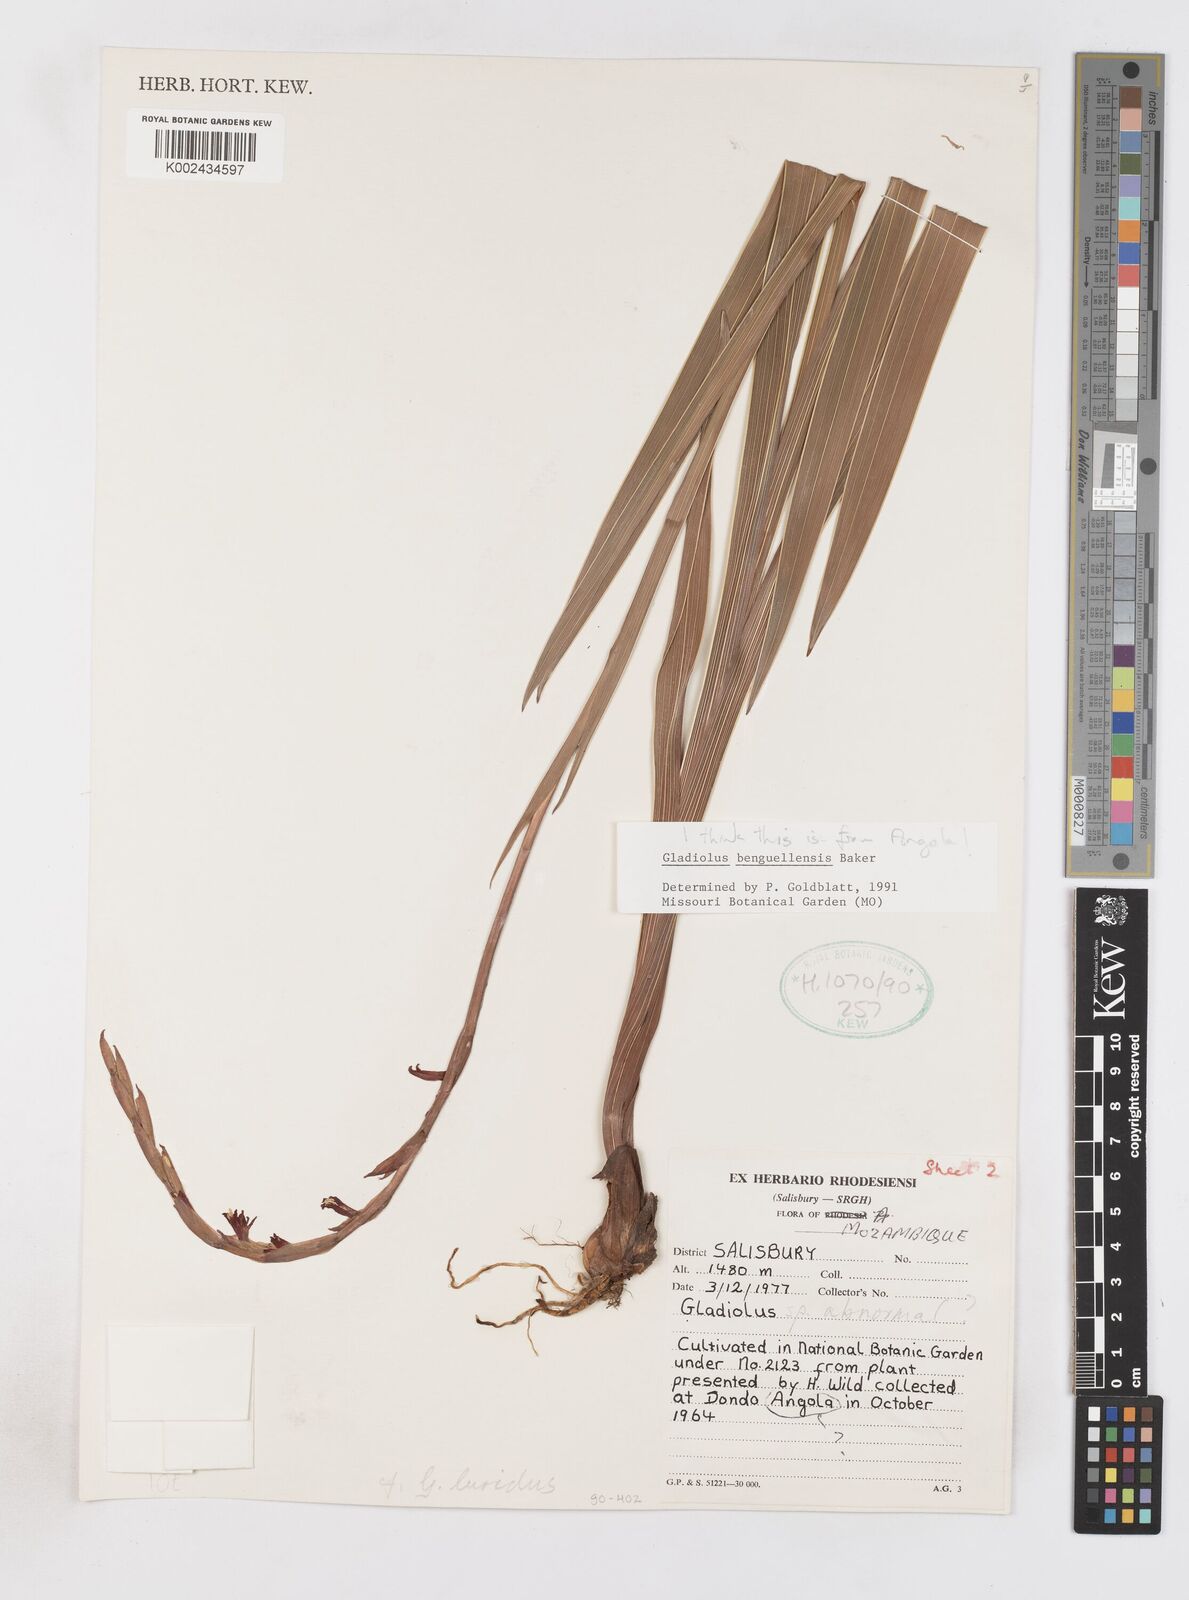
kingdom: Plantae
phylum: Tracheophyta
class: Liliopsida
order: Asparagales
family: Iridaceae
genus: Gladiolus
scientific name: Gladiolus benguellensis
